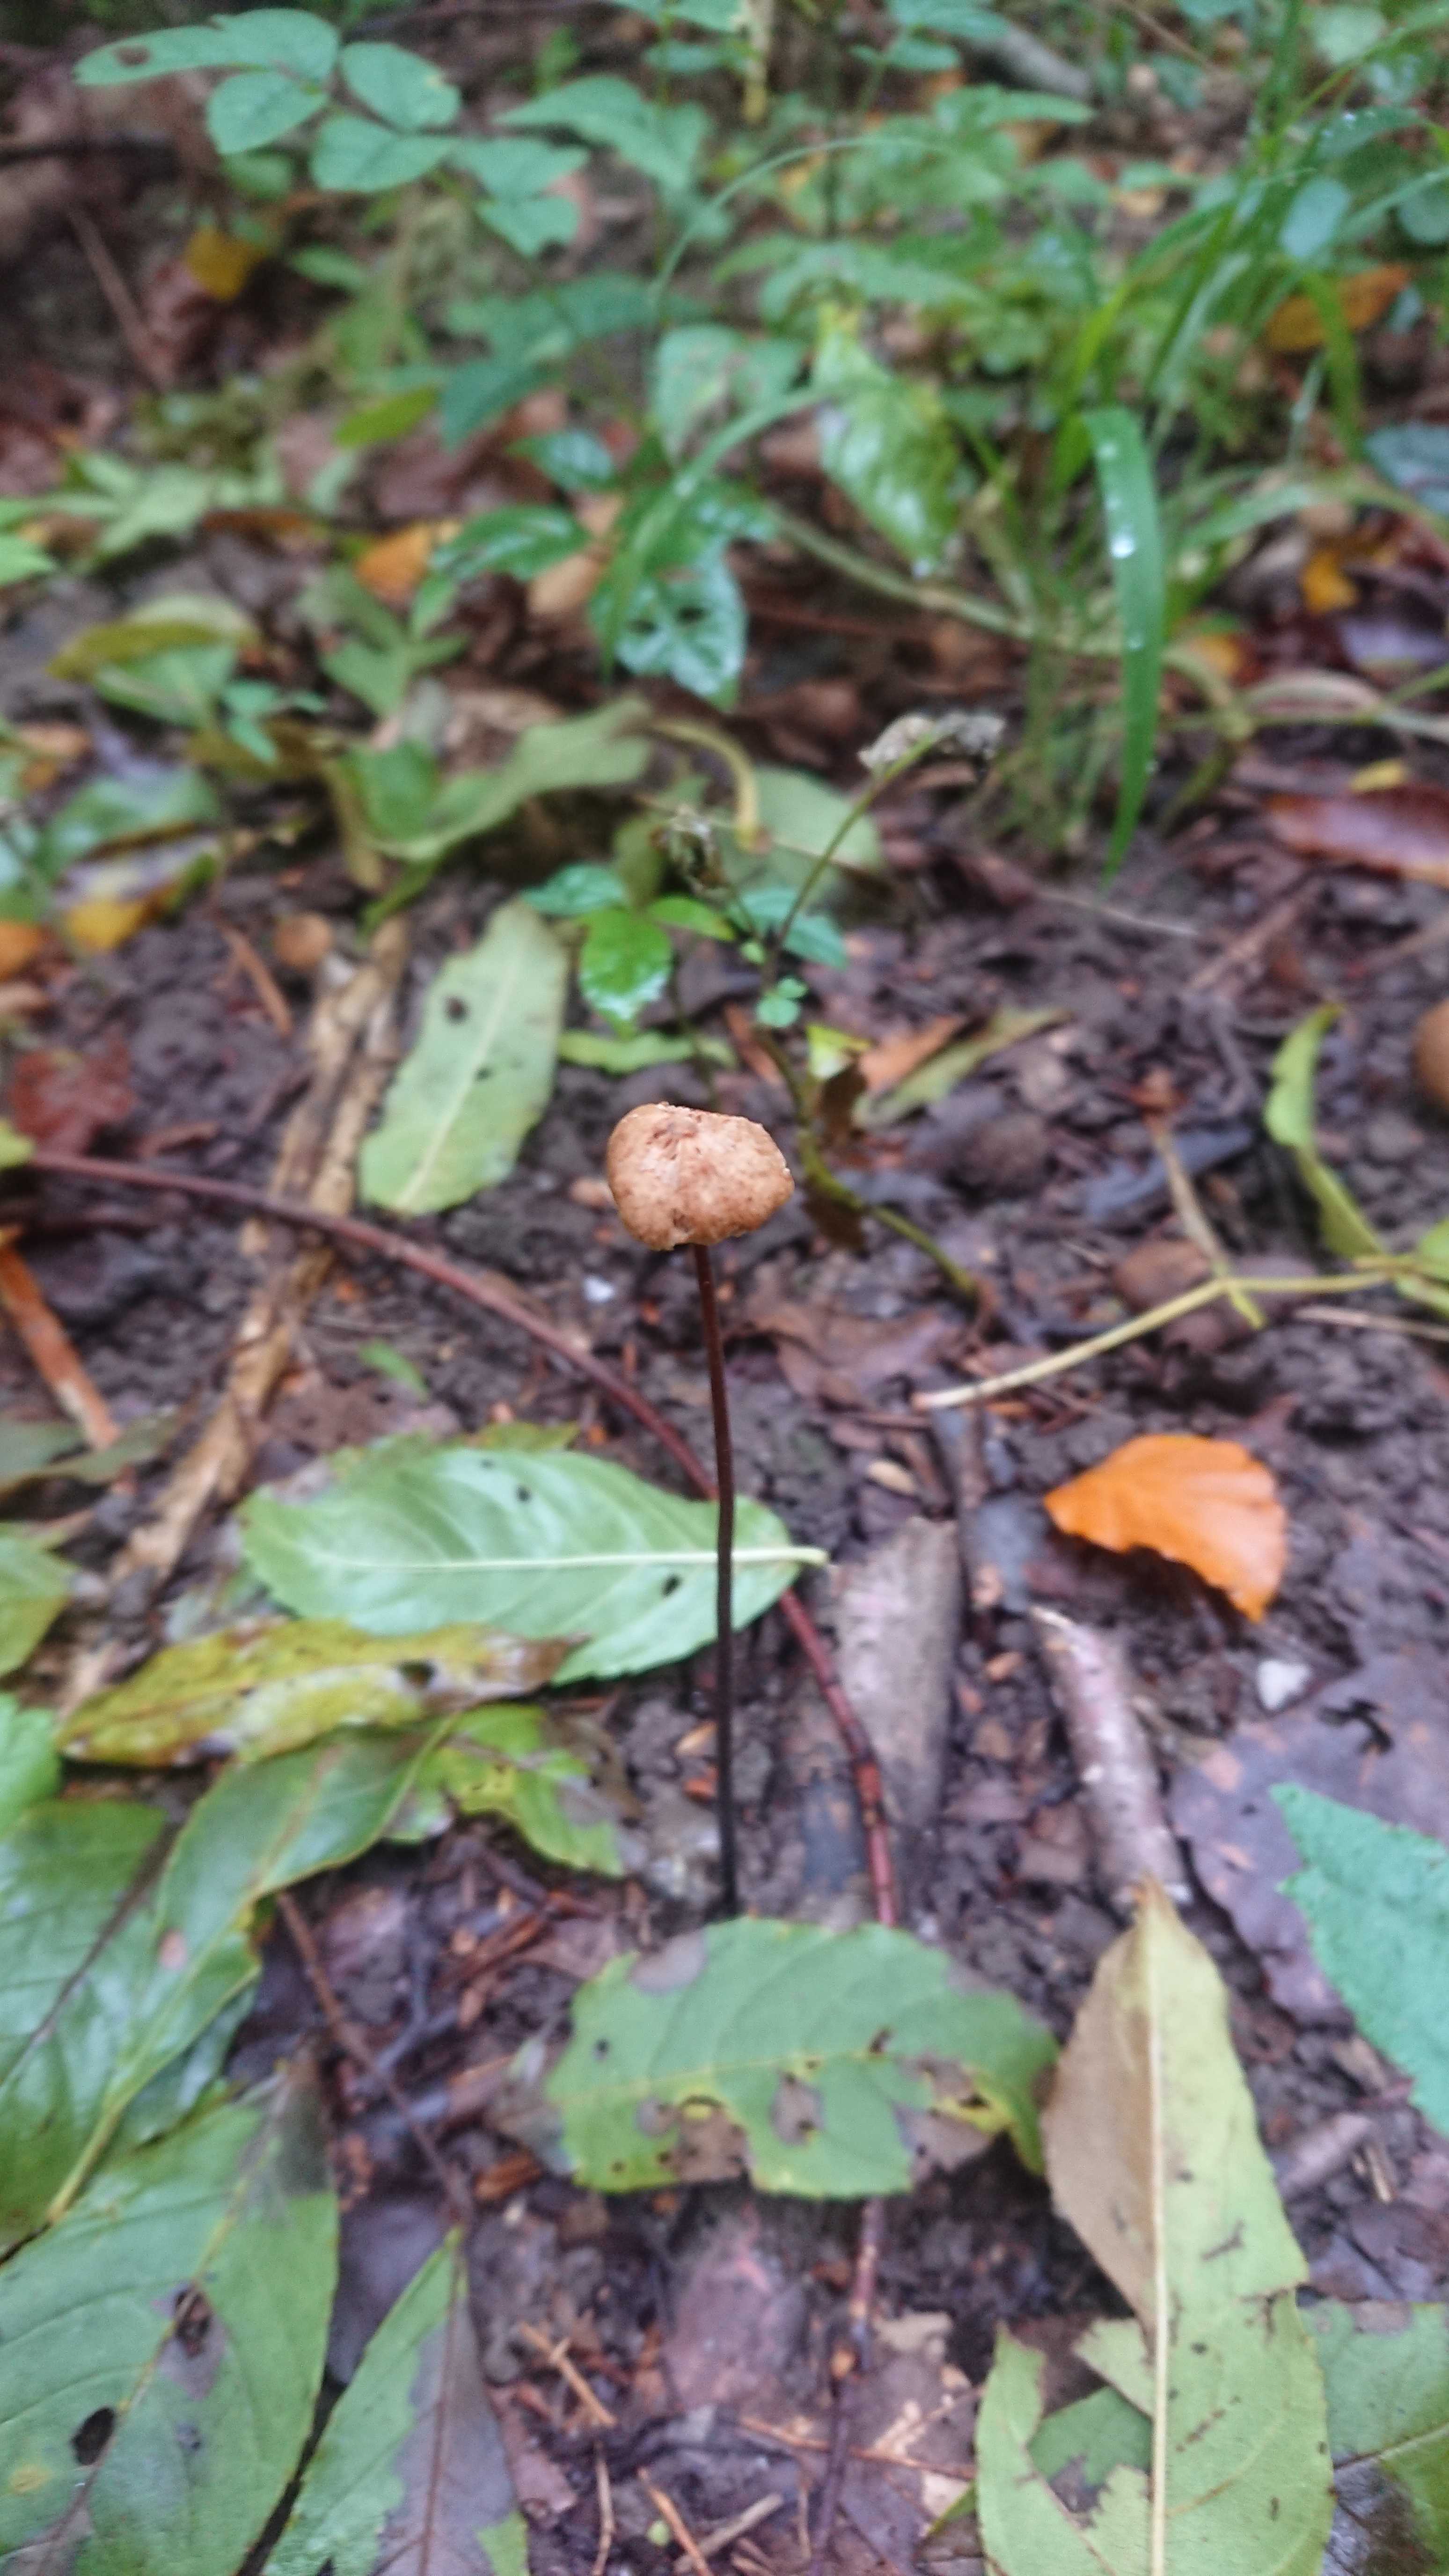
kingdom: Fungi
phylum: Basidiomycota
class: Agaricomycetes
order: Agaricales
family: Omphalotaceae
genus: Mycetinis
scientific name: Mycetinis alliaceus
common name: stor løghat
